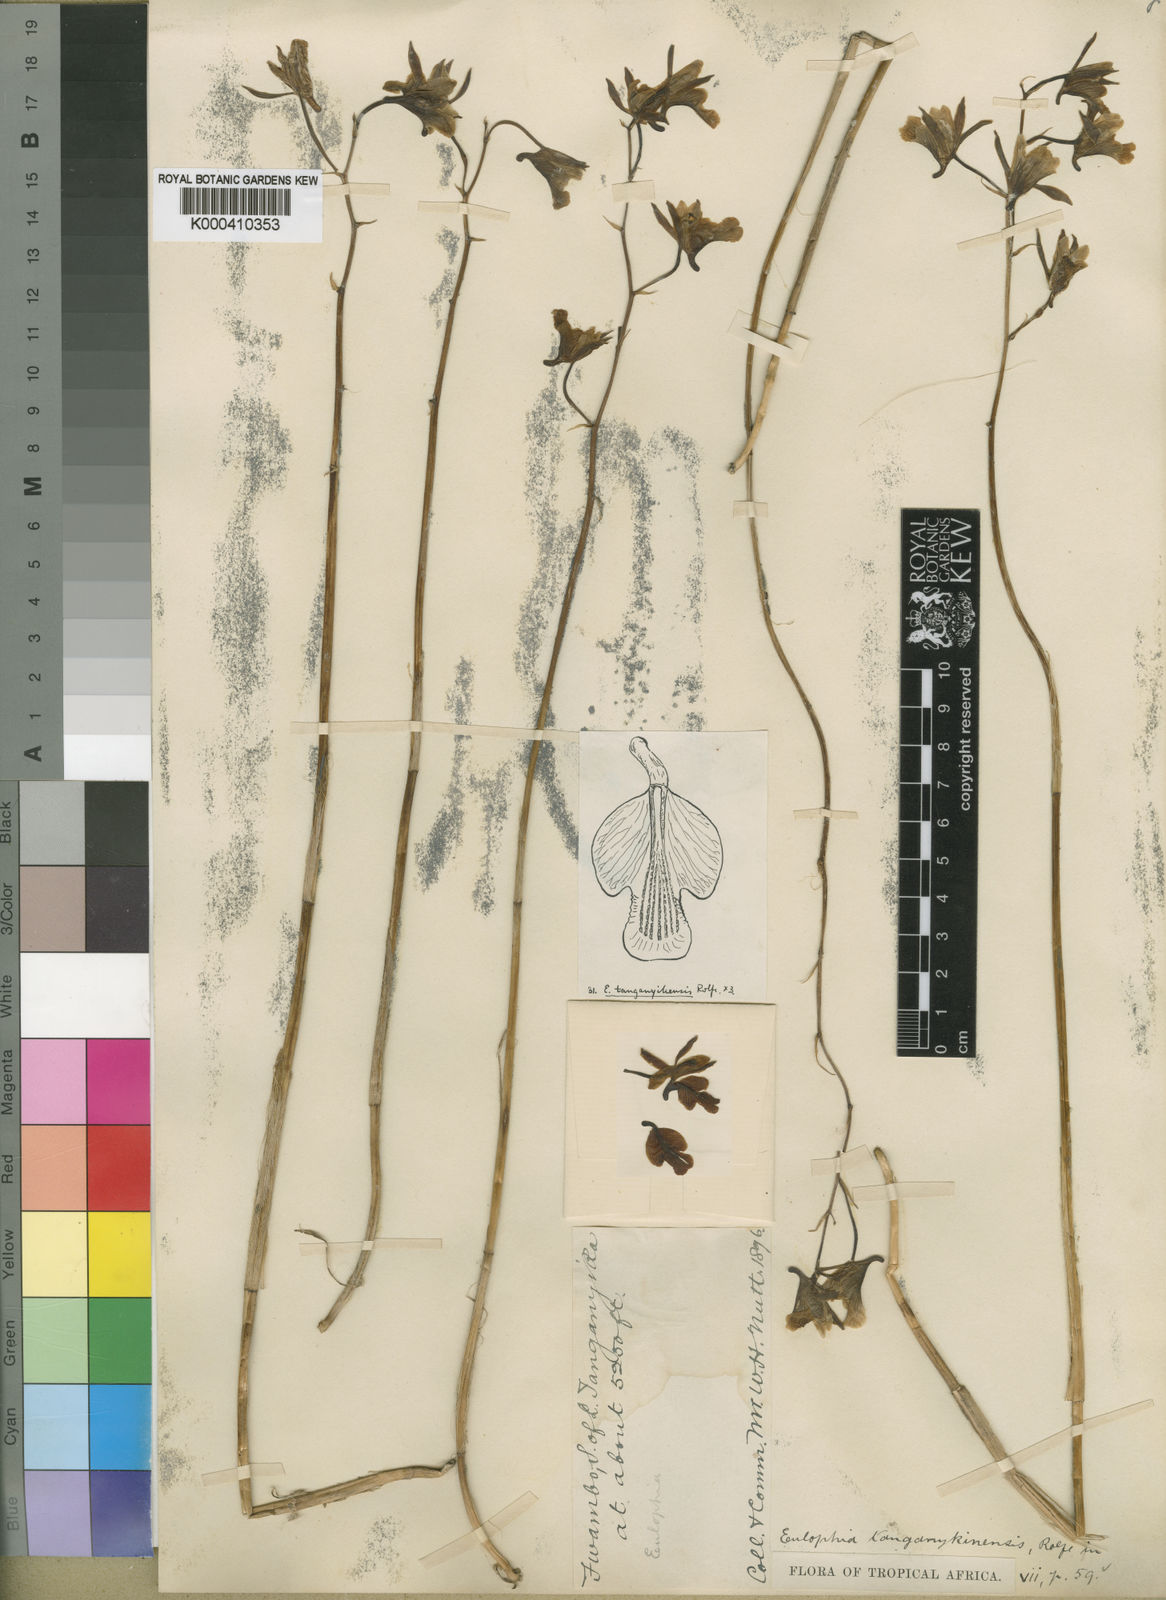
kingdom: Plantae
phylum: Tracheophyta
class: Liliopsida
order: Asparagales
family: Orchidaceae
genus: Eulophia
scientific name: Eulophia tanganyikensis
